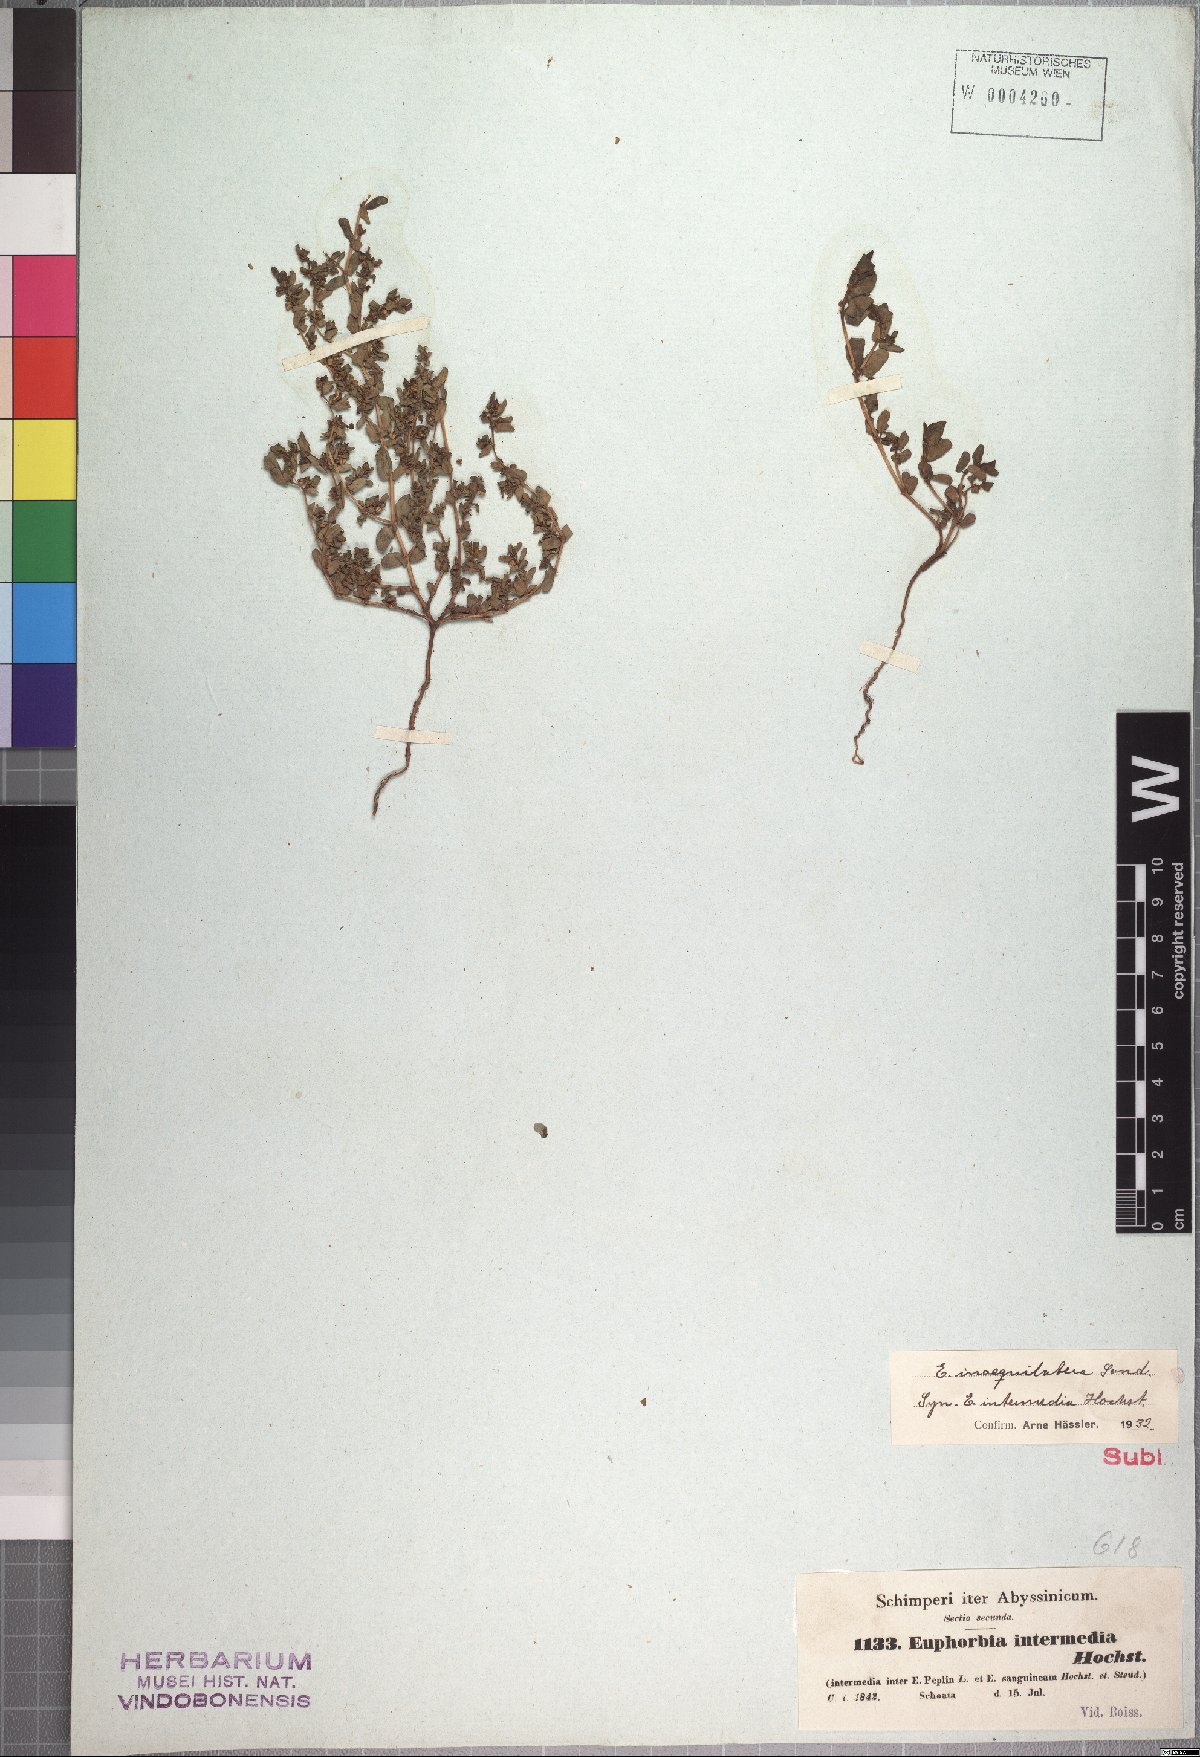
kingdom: Plantae
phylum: Tracheophyta
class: Magnoliopsida
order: Malpighiales
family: Euphorbiaceae
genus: Euphorbia
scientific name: Euphorbia inaequilatera
